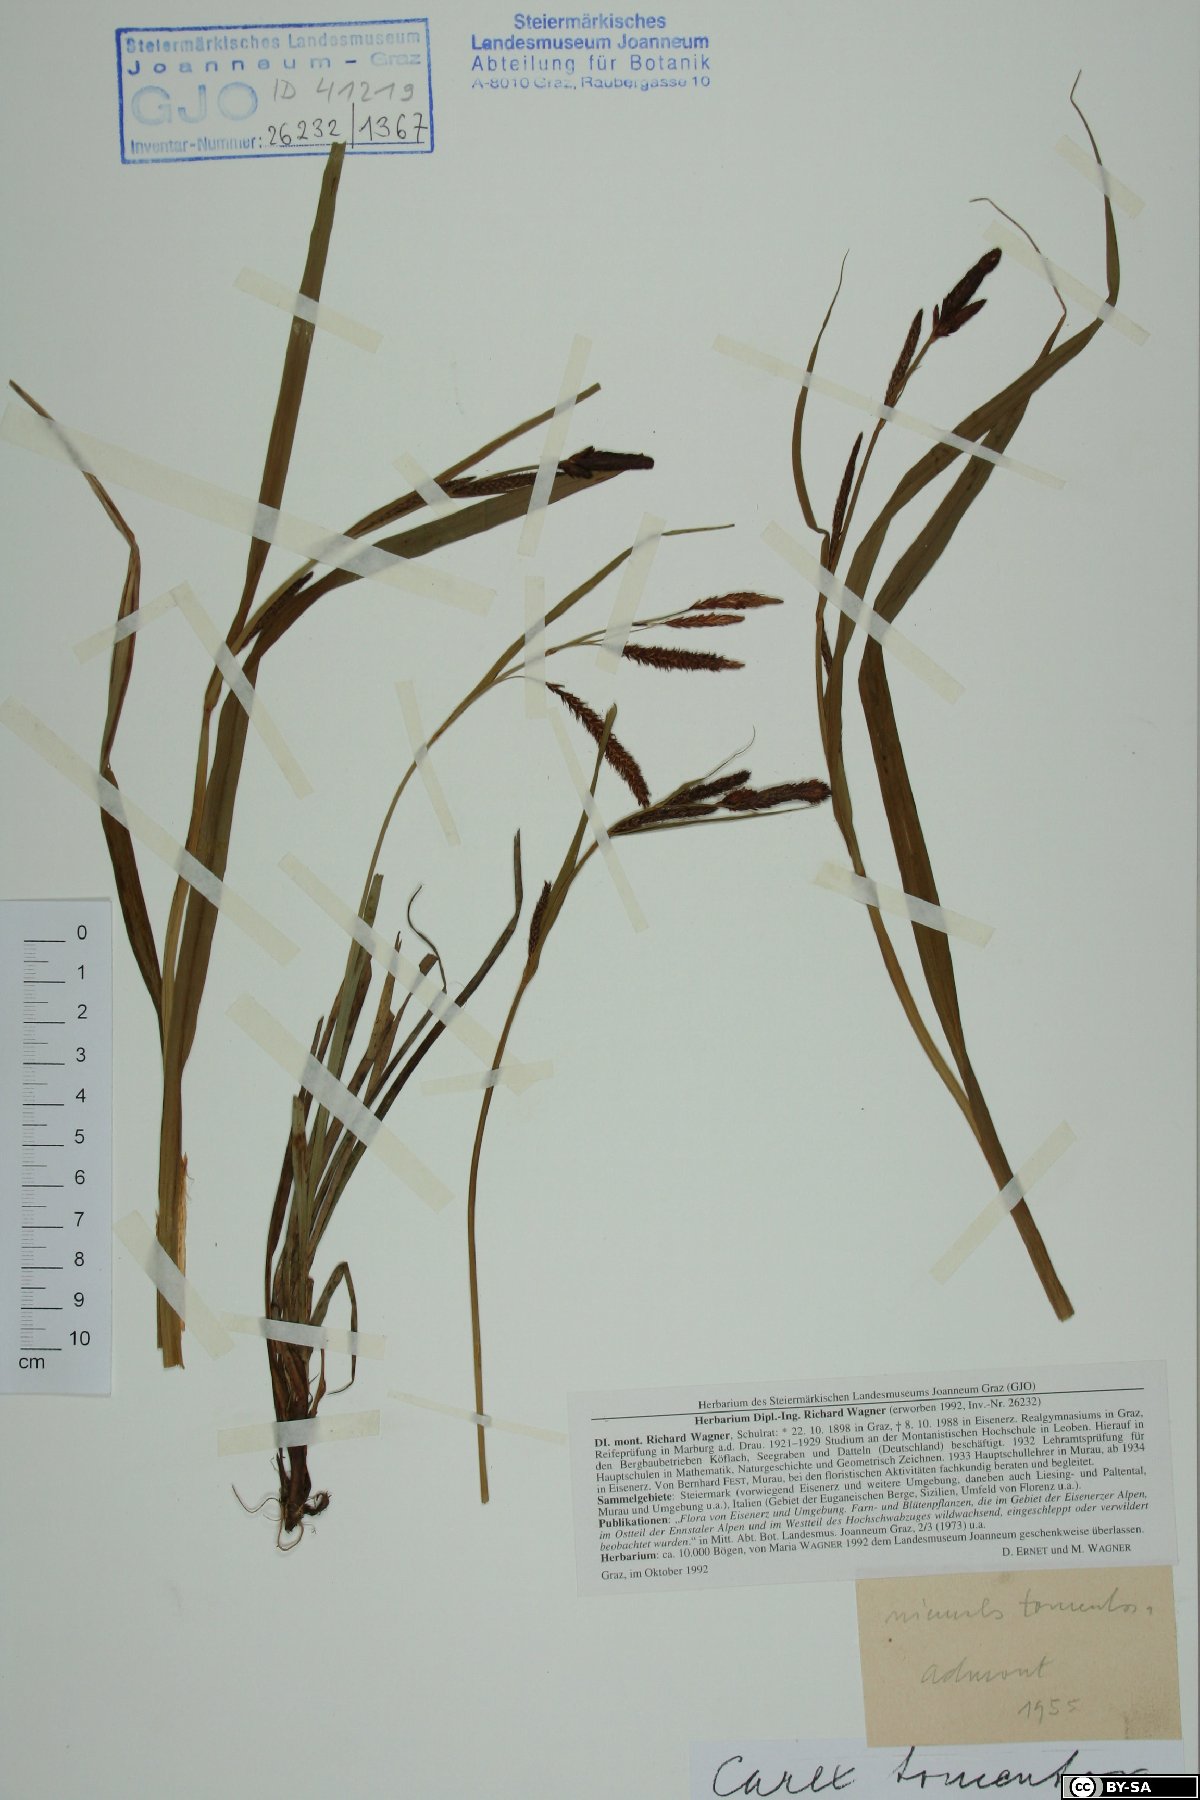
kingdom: Plantae
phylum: Tracheophyta
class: Liliopsida
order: Poales
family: Cyperaceae
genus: Carex
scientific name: Carex tomentosa
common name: Downy-fruited sedge
